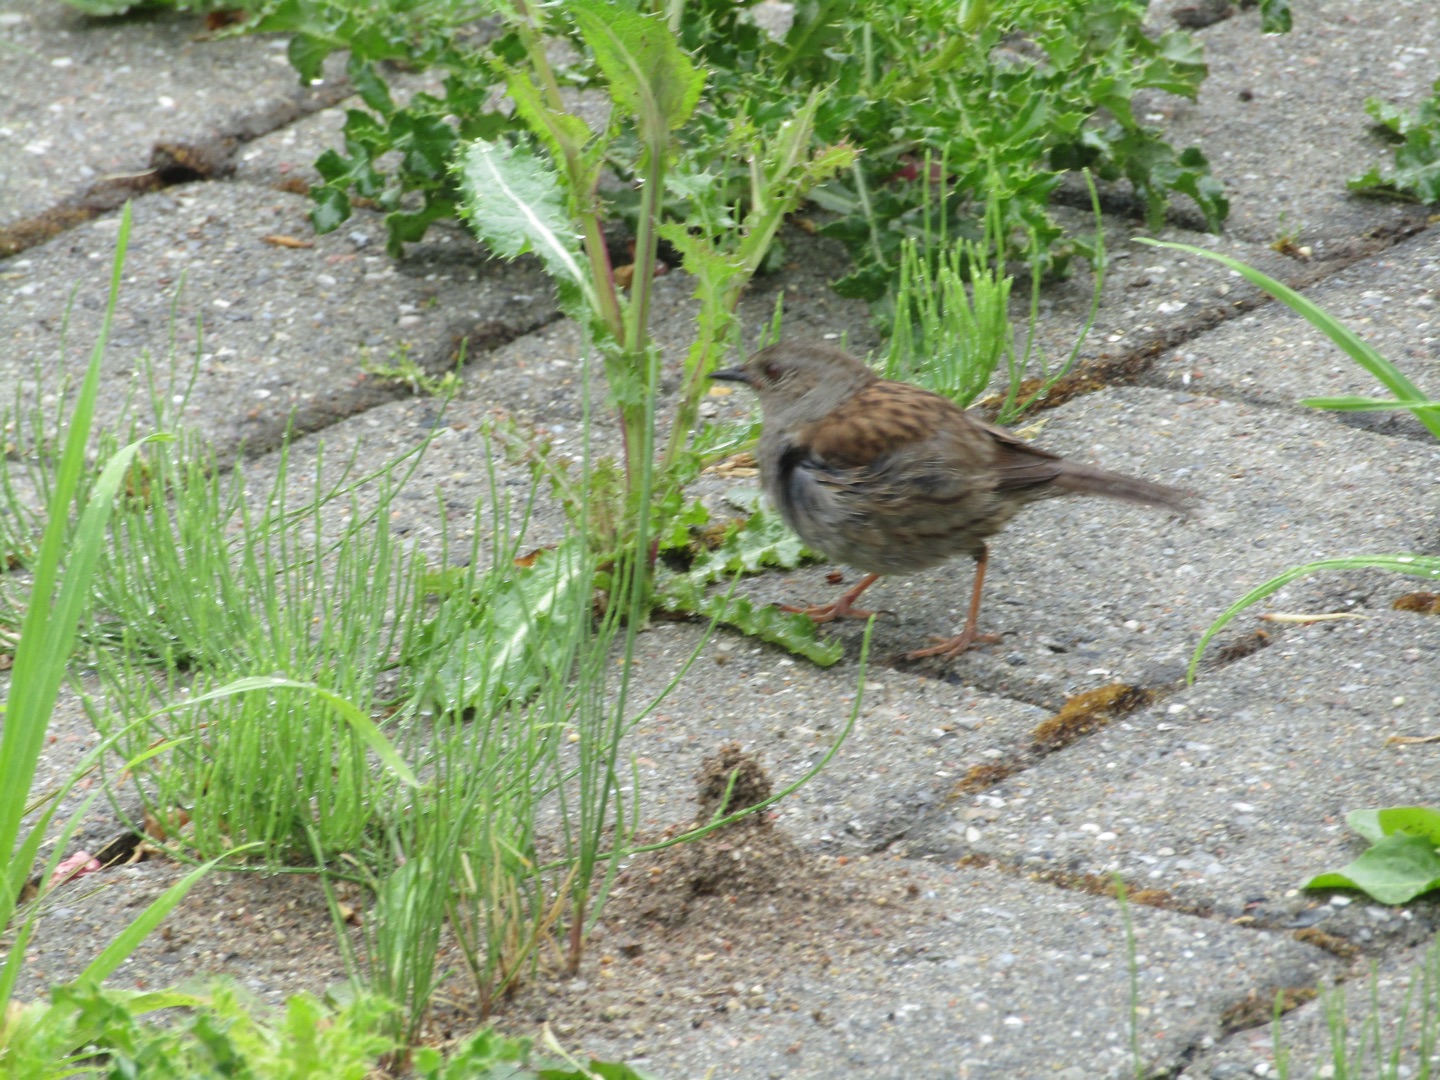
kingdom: Animalia
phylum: Chordata
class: Aves
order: Passeriformes
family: Prunellidae
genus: Prunella
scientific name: Prunella modularis
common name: Jernspurv
